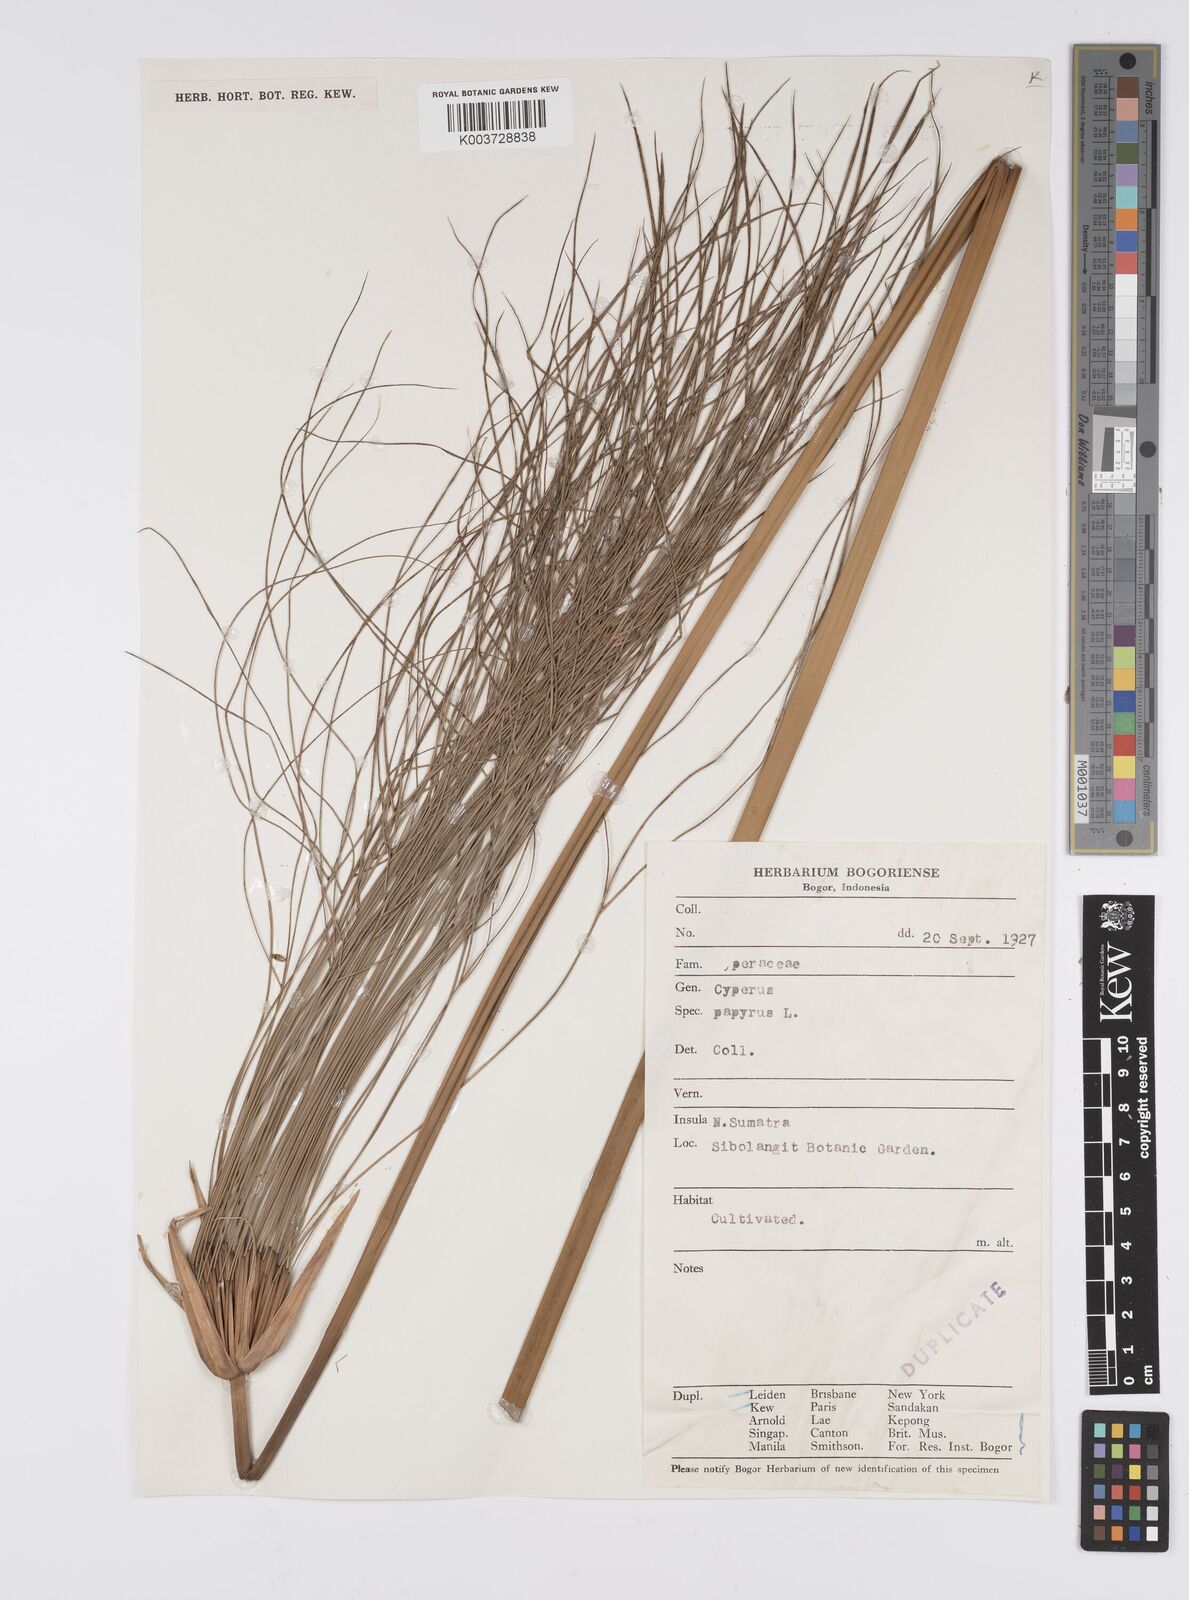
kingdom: Plantae
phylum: Tracheophyta
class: Liliopsida
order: Poales
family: Cyperaceae
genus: Cyperus
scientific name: Cyperus papyrus
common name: Papyrus
